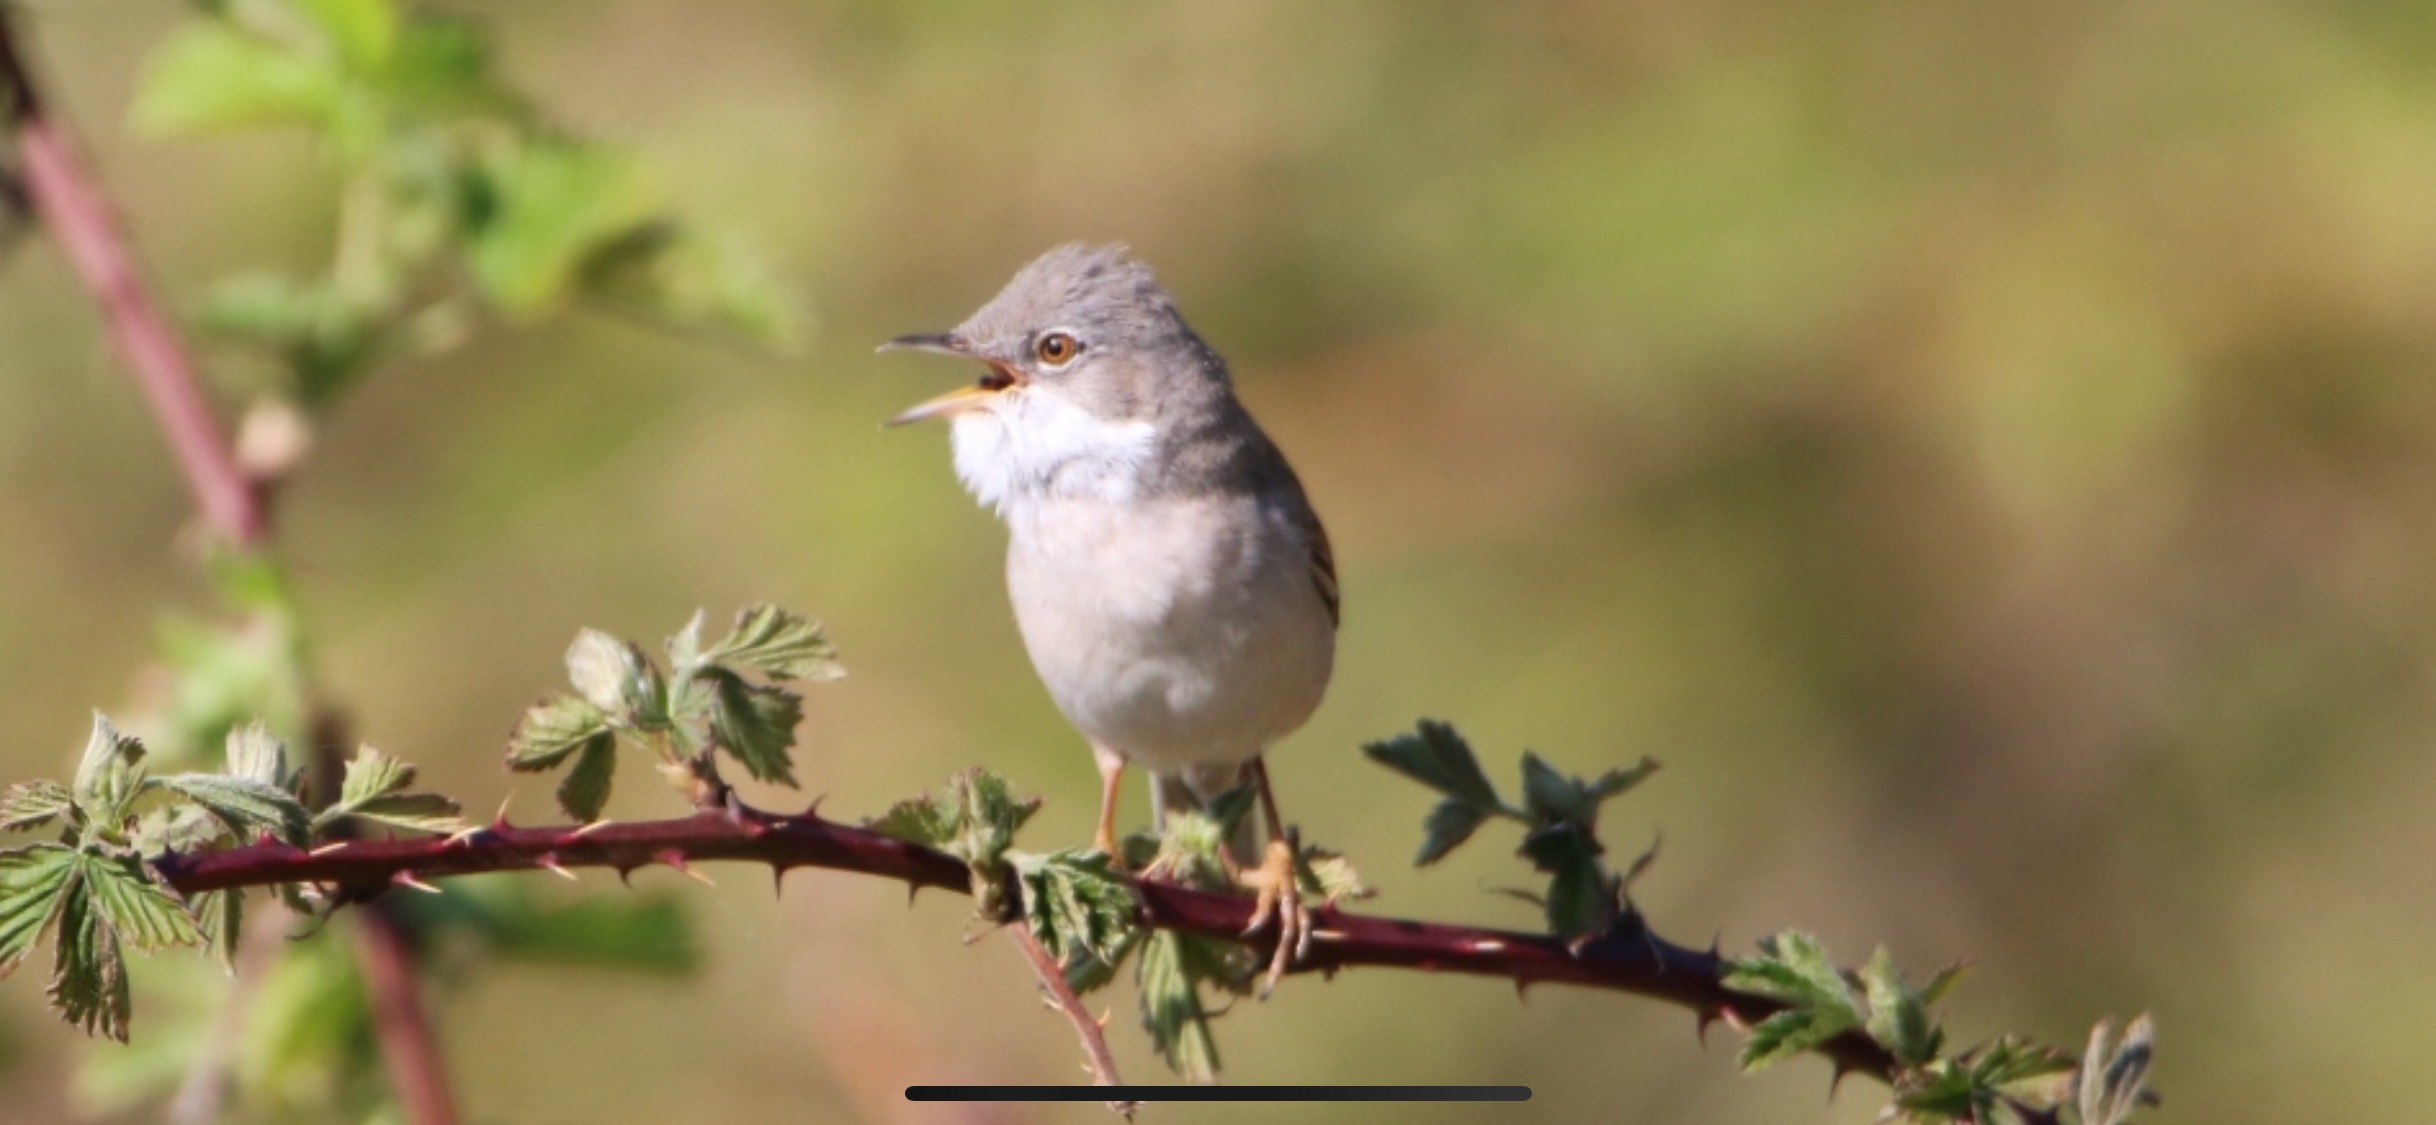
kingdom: Animalia
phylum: Chordata
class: Aves
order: Passeriformes
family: Sylviidae
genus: Sylvia
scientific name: Sylvia communis
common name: Tornsanger
